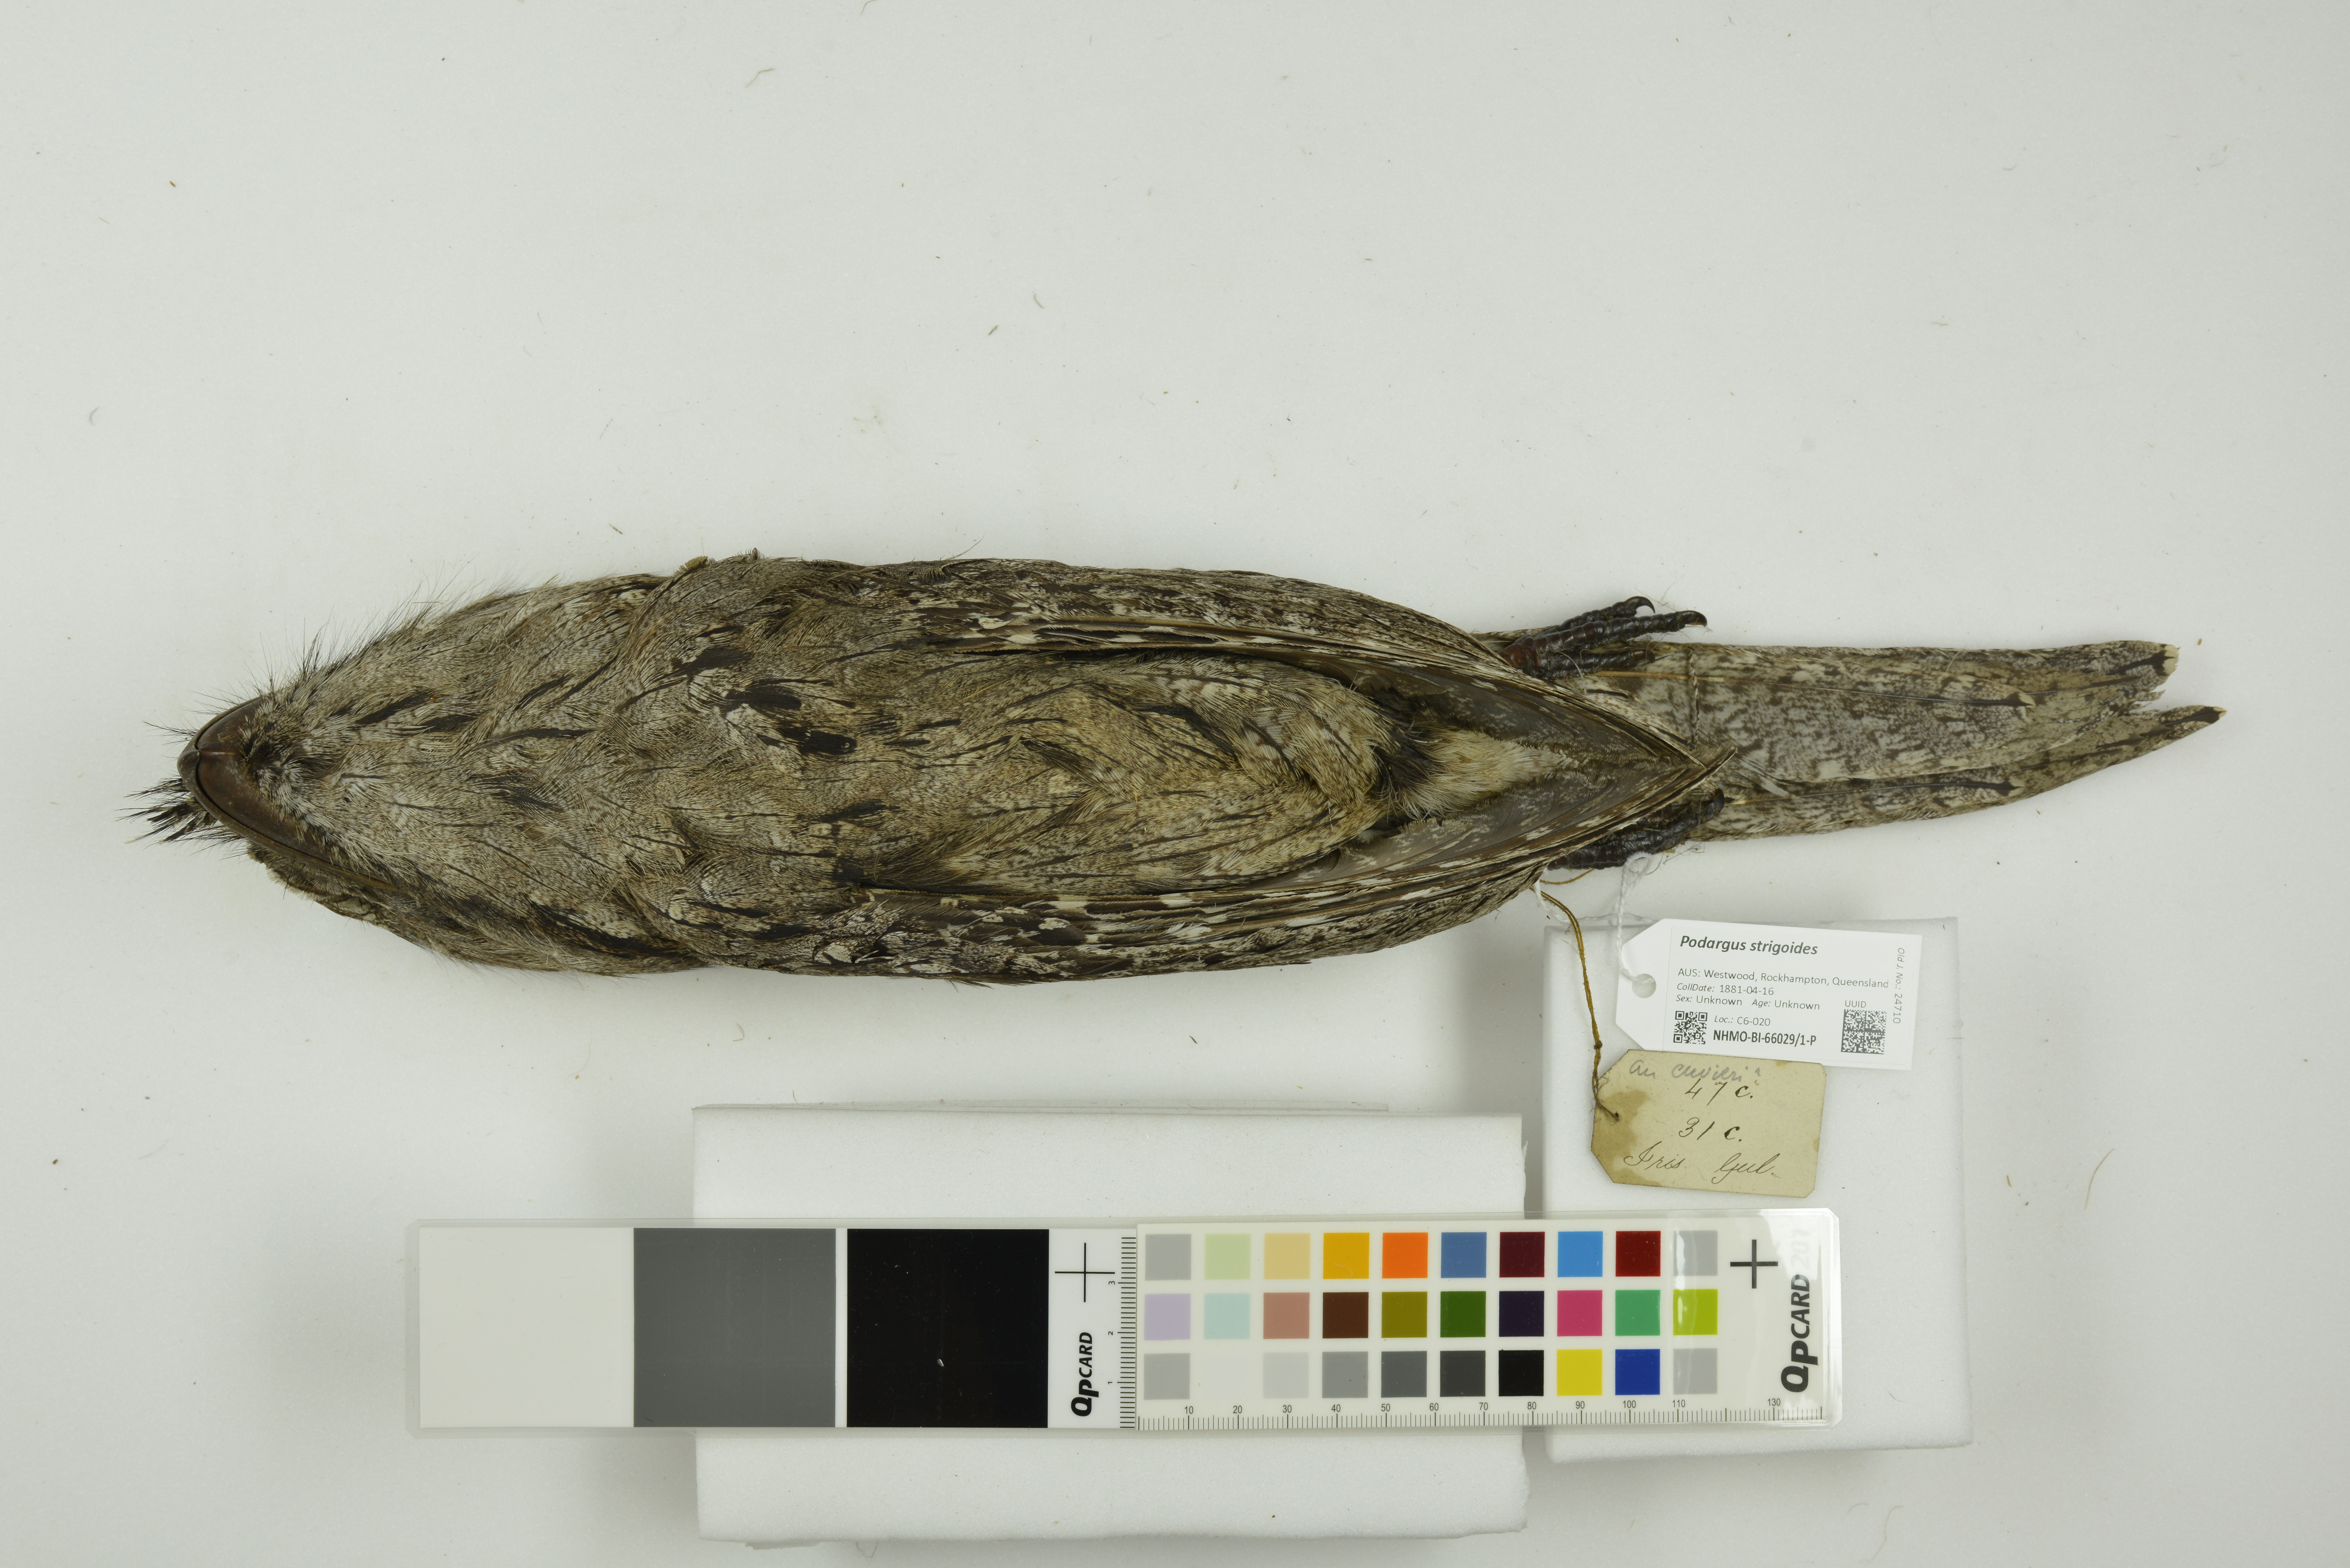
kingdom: Animalia
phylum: Chordata
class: Aves
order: Caprimulgiformes
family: Podargidae
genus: Podargus
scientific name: Podargus strigoides
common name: Tawny frogmouth
